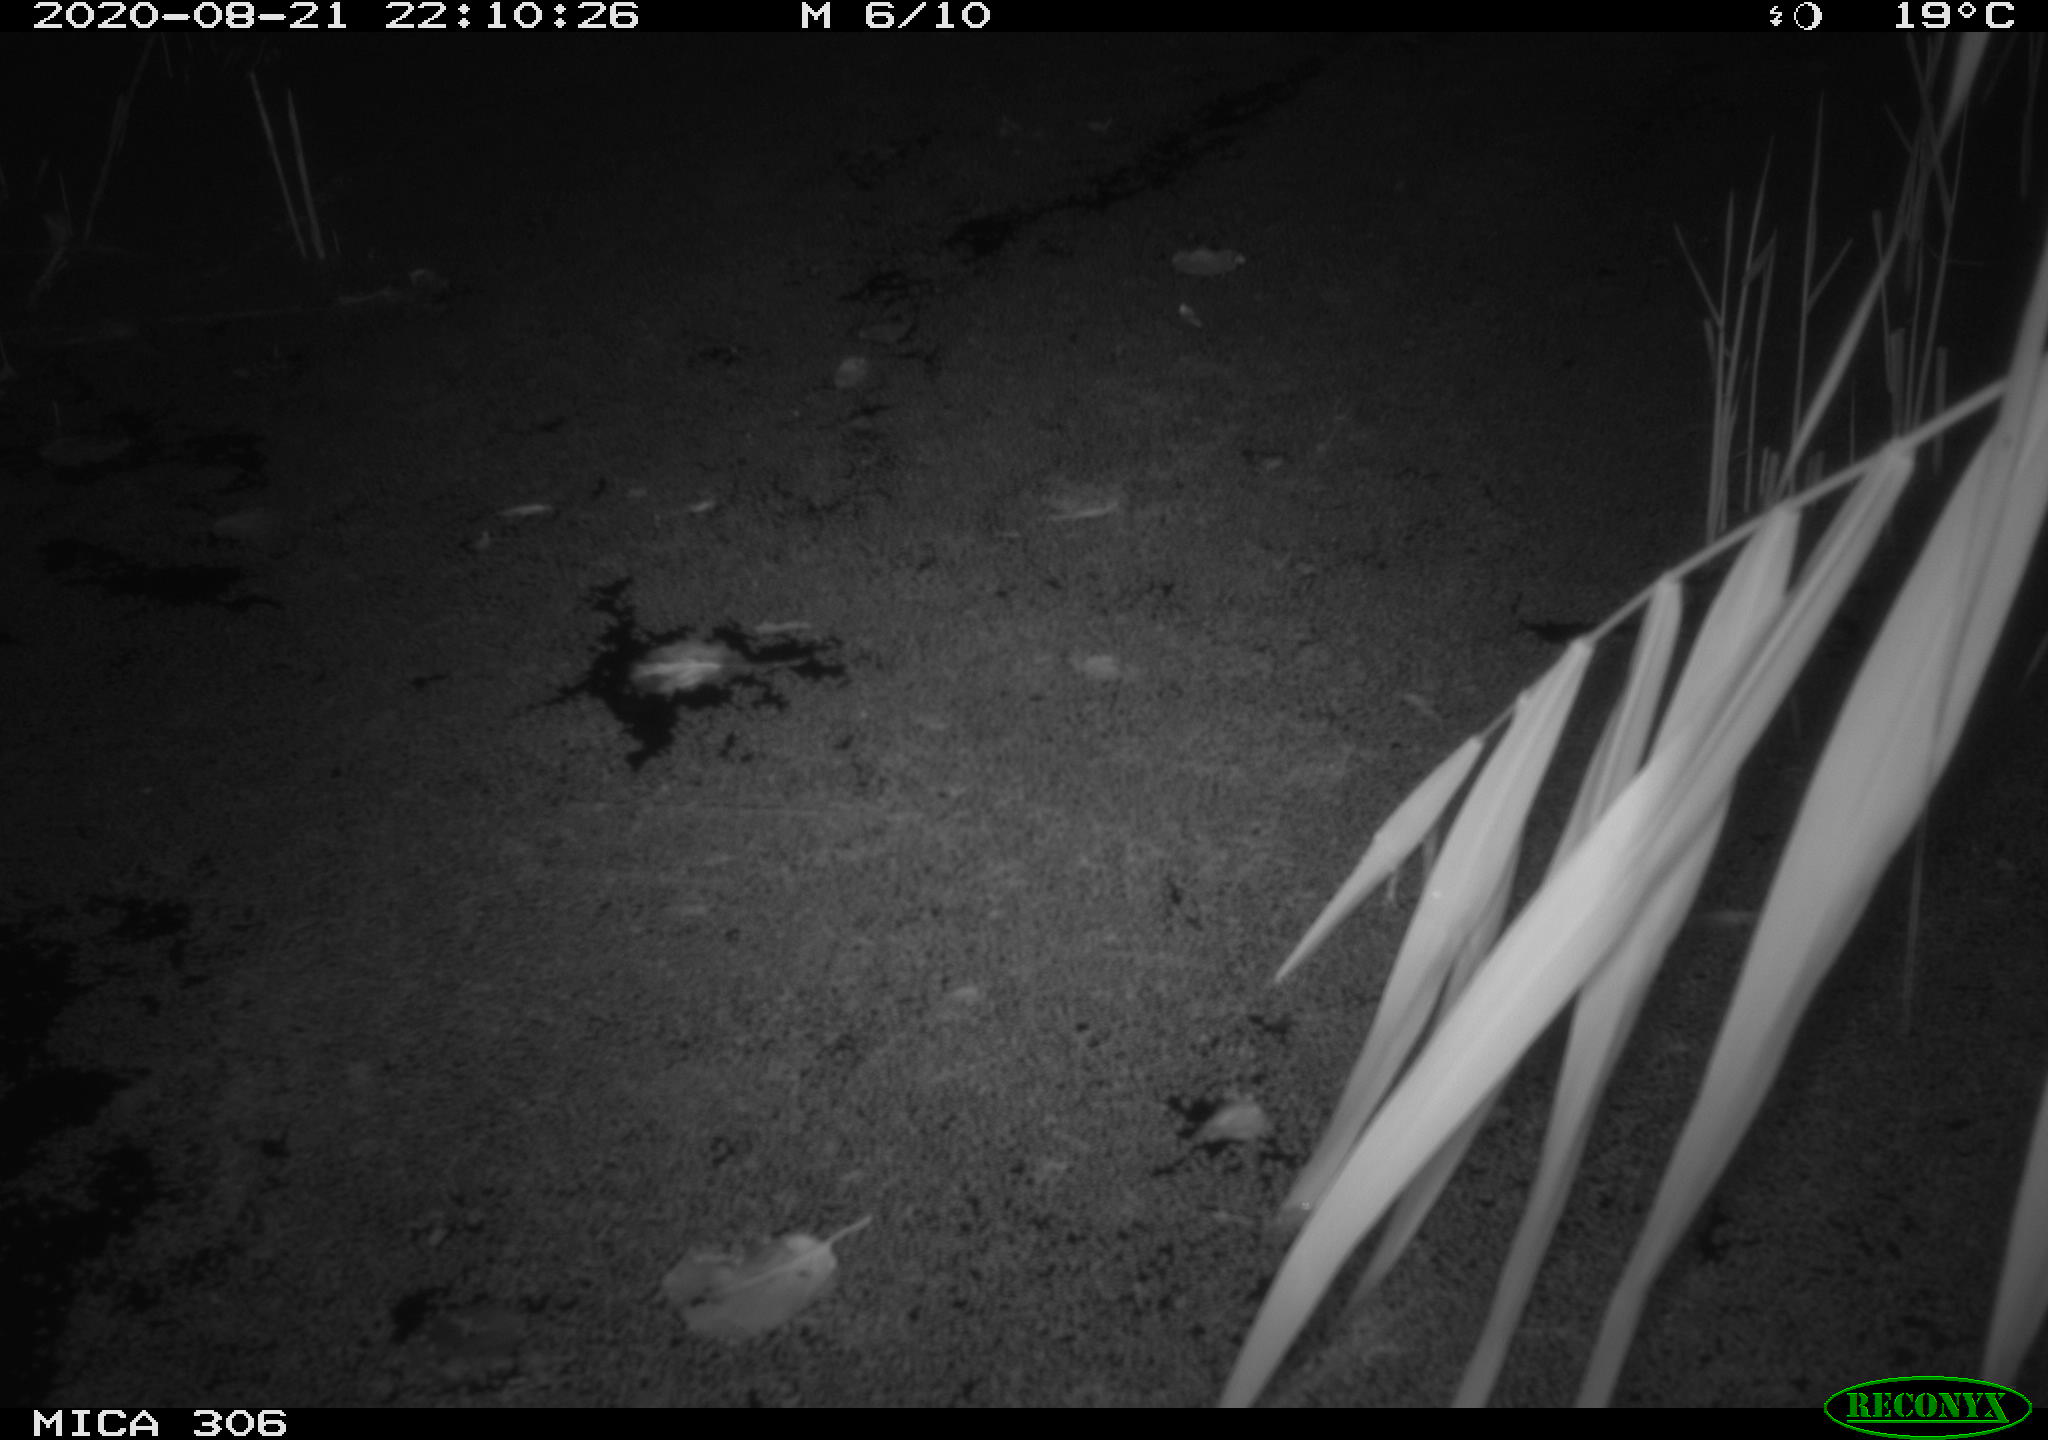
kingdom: Animalia
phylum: Chordata
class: Mammalia
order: Rodentia
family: Muridae
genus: Rattus
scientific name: Rattus norvegicus
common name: Brown rat
